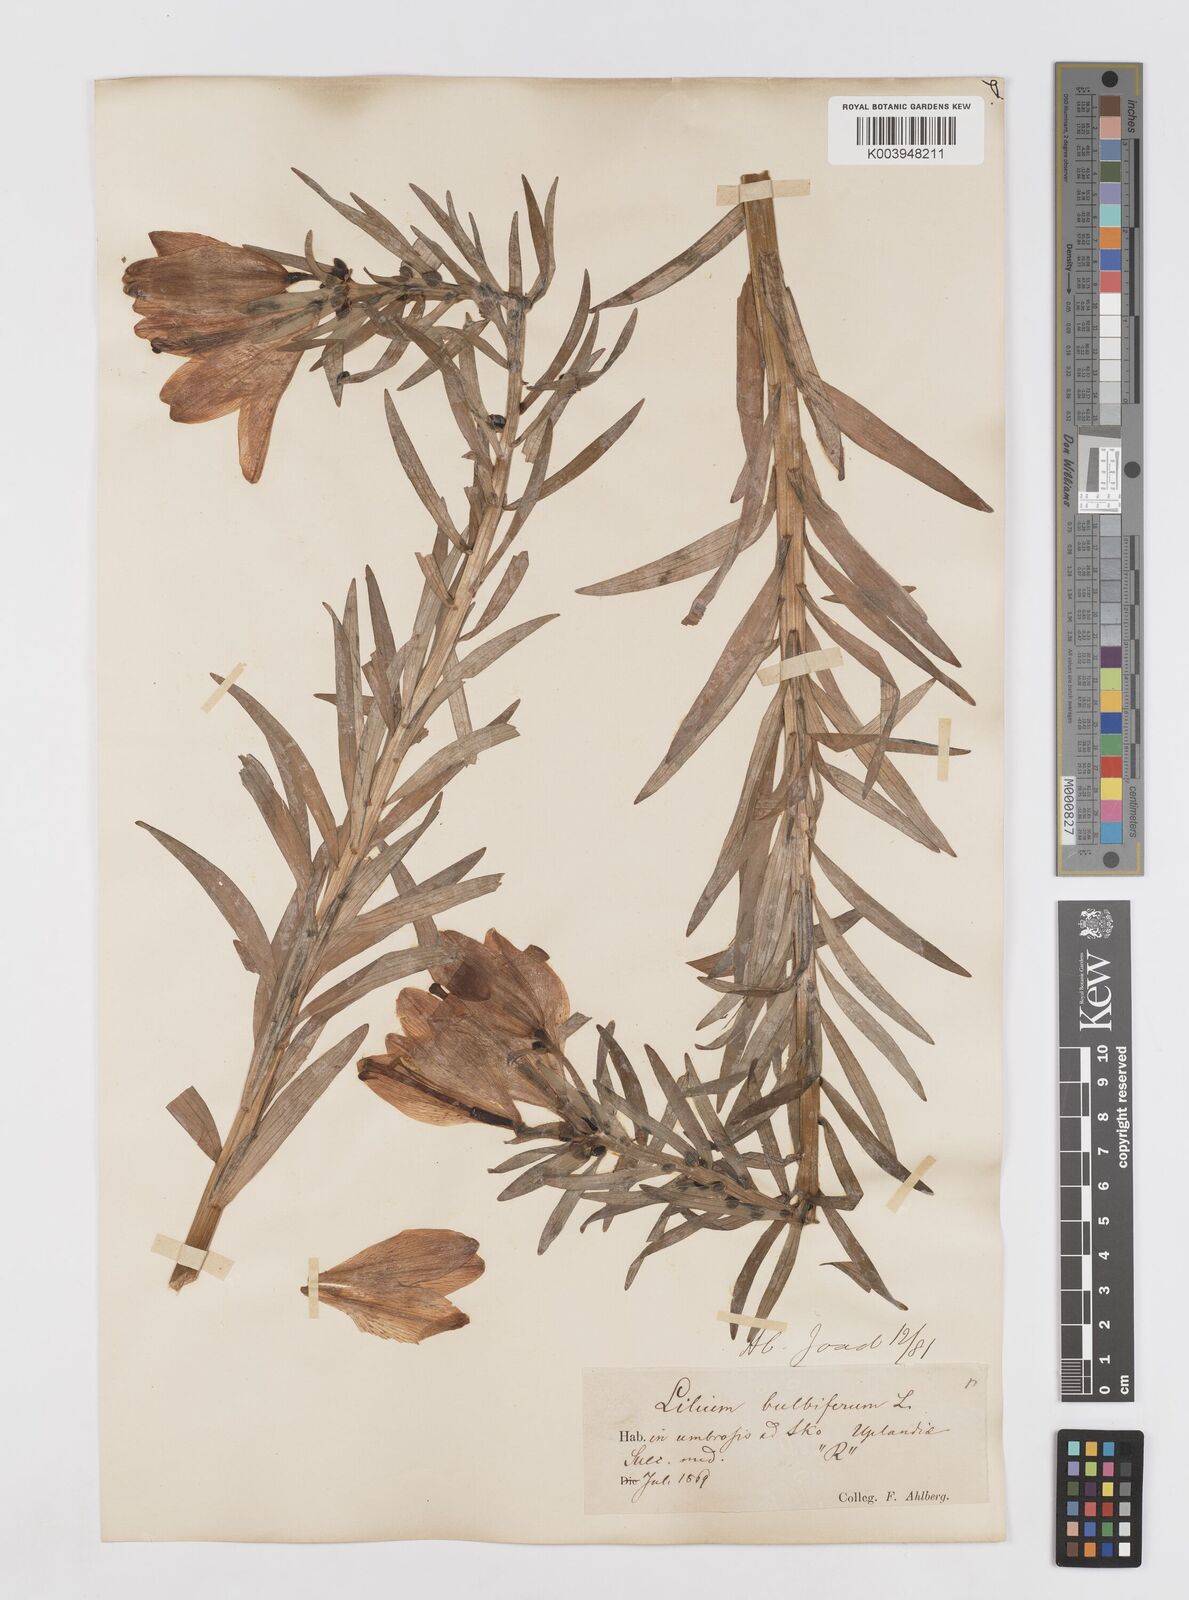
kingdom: Plantae
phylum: Tracheophyta
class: Liliopsida
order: Liliales
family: Liliaceae
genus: Lilium
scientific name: Lilium bulbiferum
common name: Orange lily
